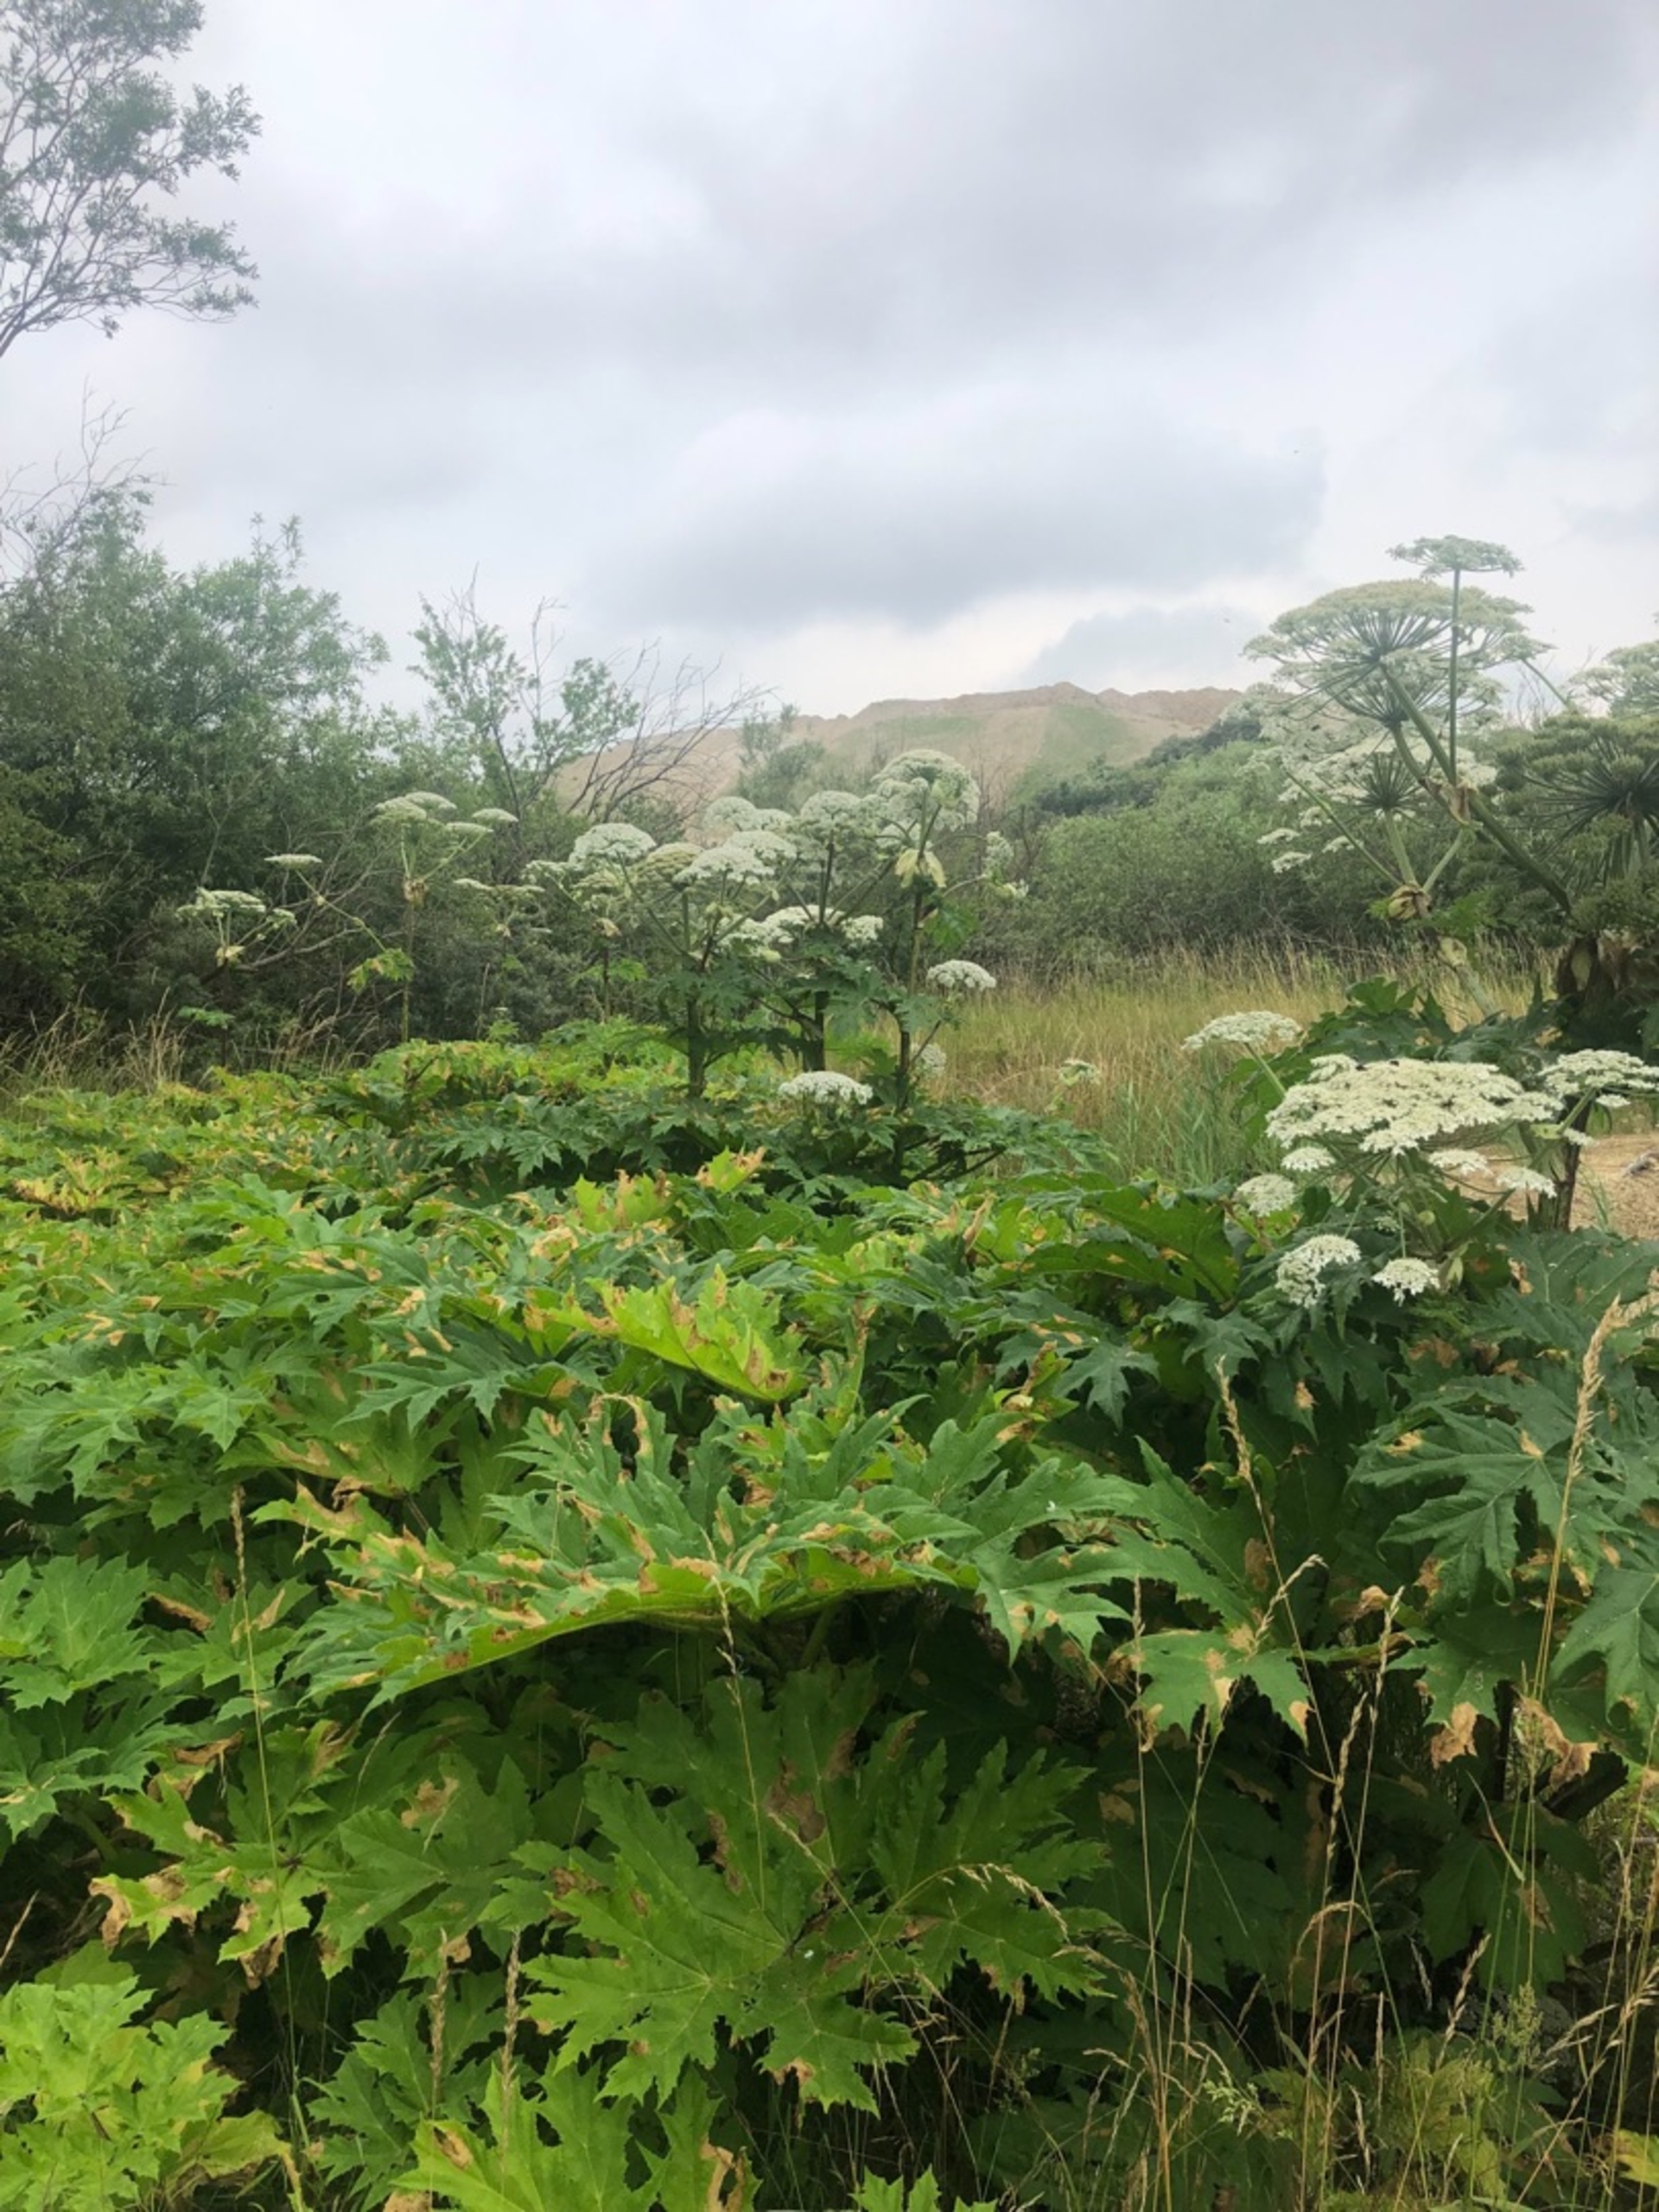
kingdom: Plantae
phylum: Tracheophyta
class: Magnoliopsida
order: Apiales
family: Apiaceae
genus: Heracleum
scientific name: Heracleum mantegazzianum
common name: Kæmpe-bjørneklo
